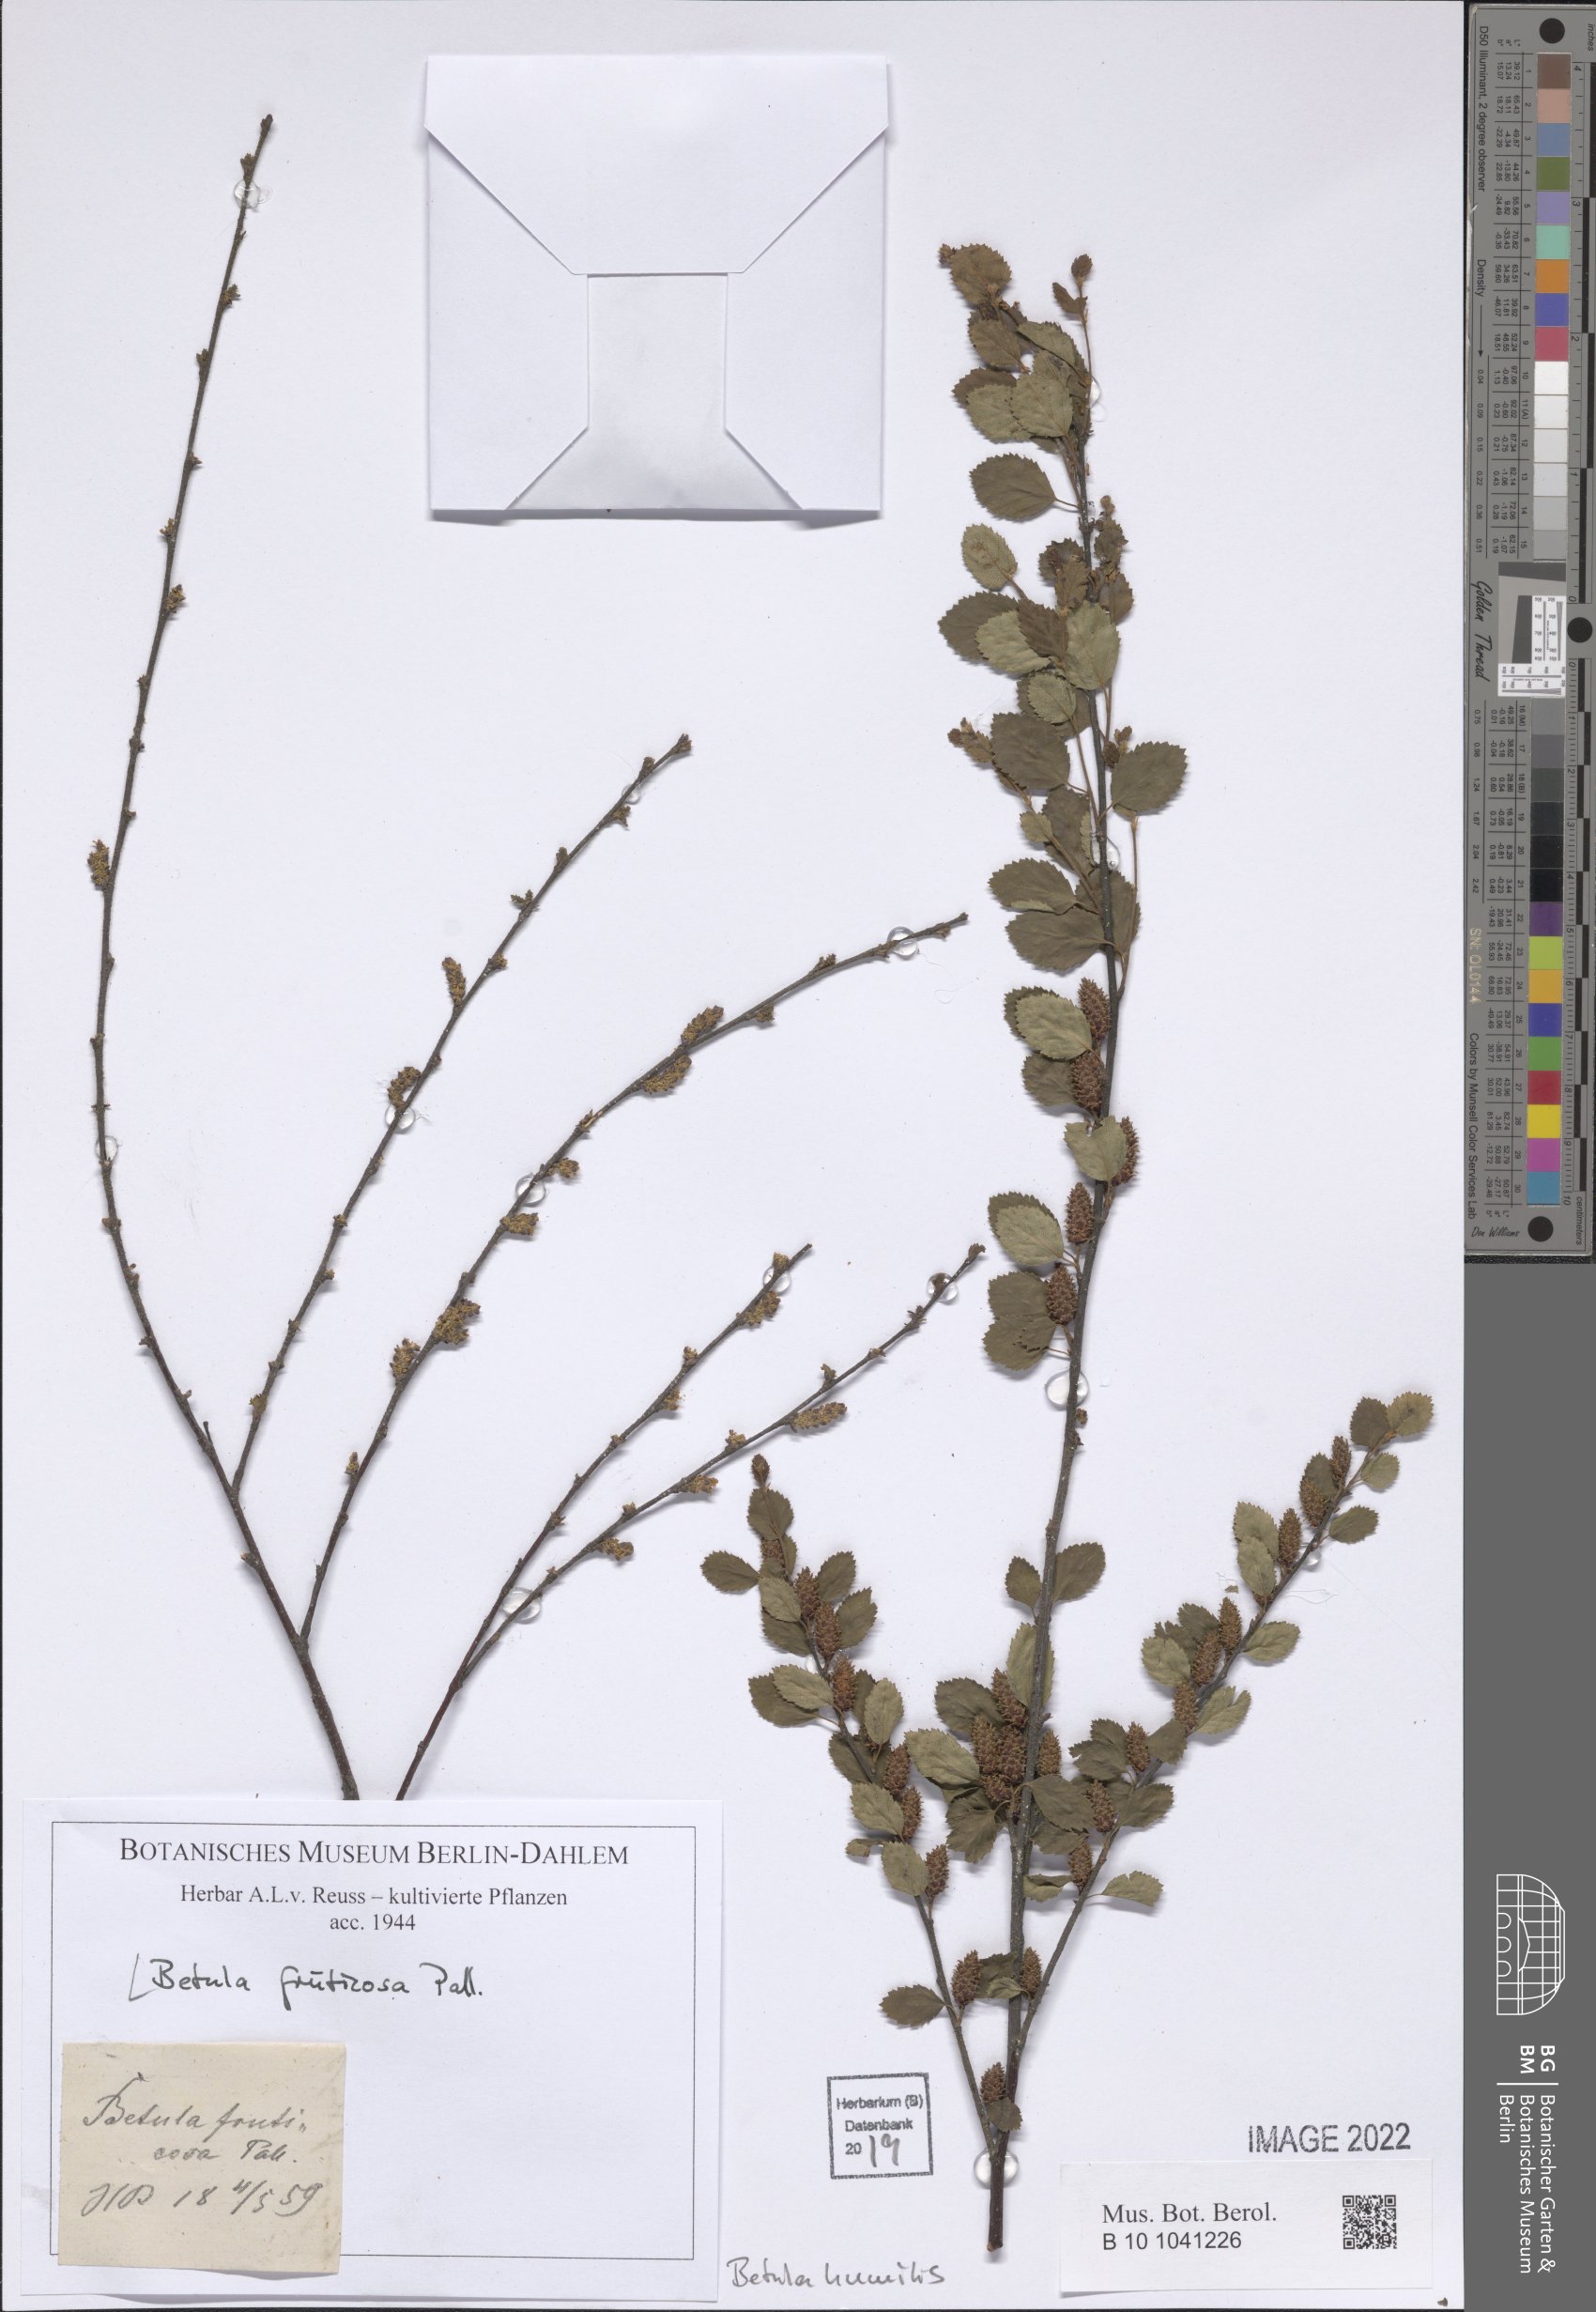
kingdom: Plantae
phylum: Tracheophyta
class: Magnoliopsida
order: Fagales
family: Betulaceae
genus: Betula
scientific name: Betula fruticosa
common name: Japanese bog birch
